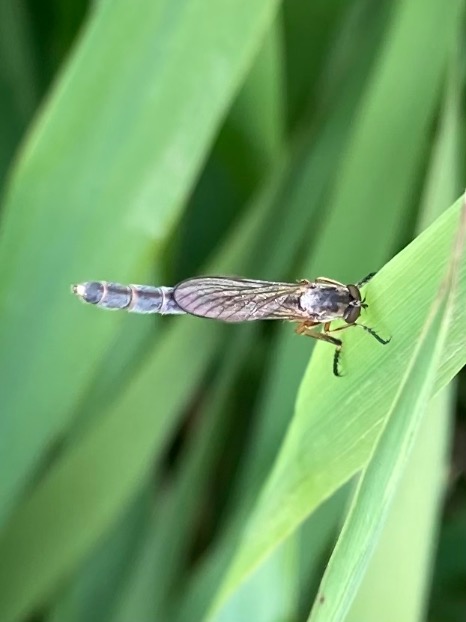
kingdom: Animalia
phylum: Arthropoda
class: Insecta
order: Diptera
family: Asilidae
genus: Leptogaster
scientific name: Leptogaster cylindrica
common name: Lang græsrovflue
